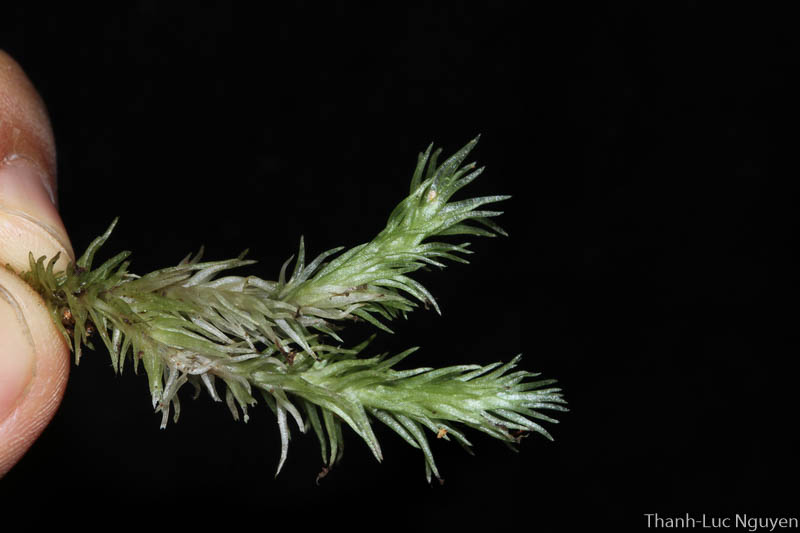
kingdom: Plantae
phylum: Bryophyta
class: Bryopsida
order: Dicranales
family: Leucobryaceae
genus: Leucobryum
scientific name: Leucobryum javense
